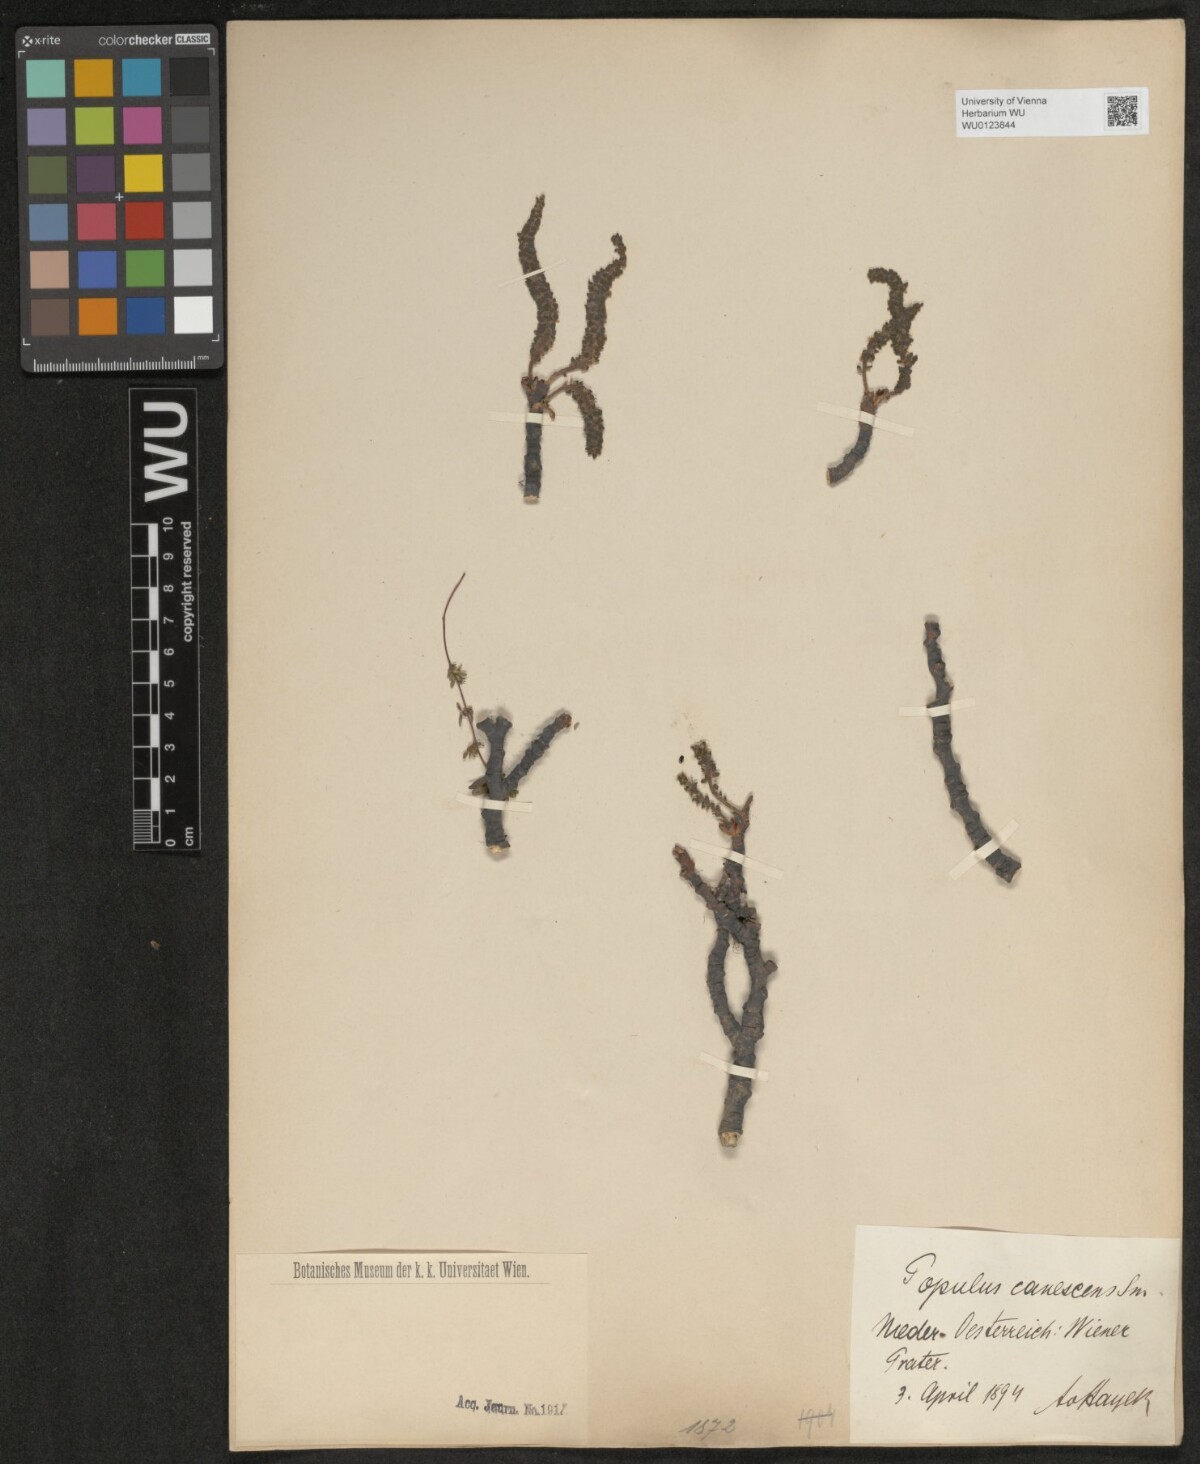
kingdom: Plantae
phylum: Tracheophyta
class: Magnoliopsida
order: Malpighiales
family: Salicaceae
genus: Populus
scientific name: Populus canescens
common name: Gray poplar
